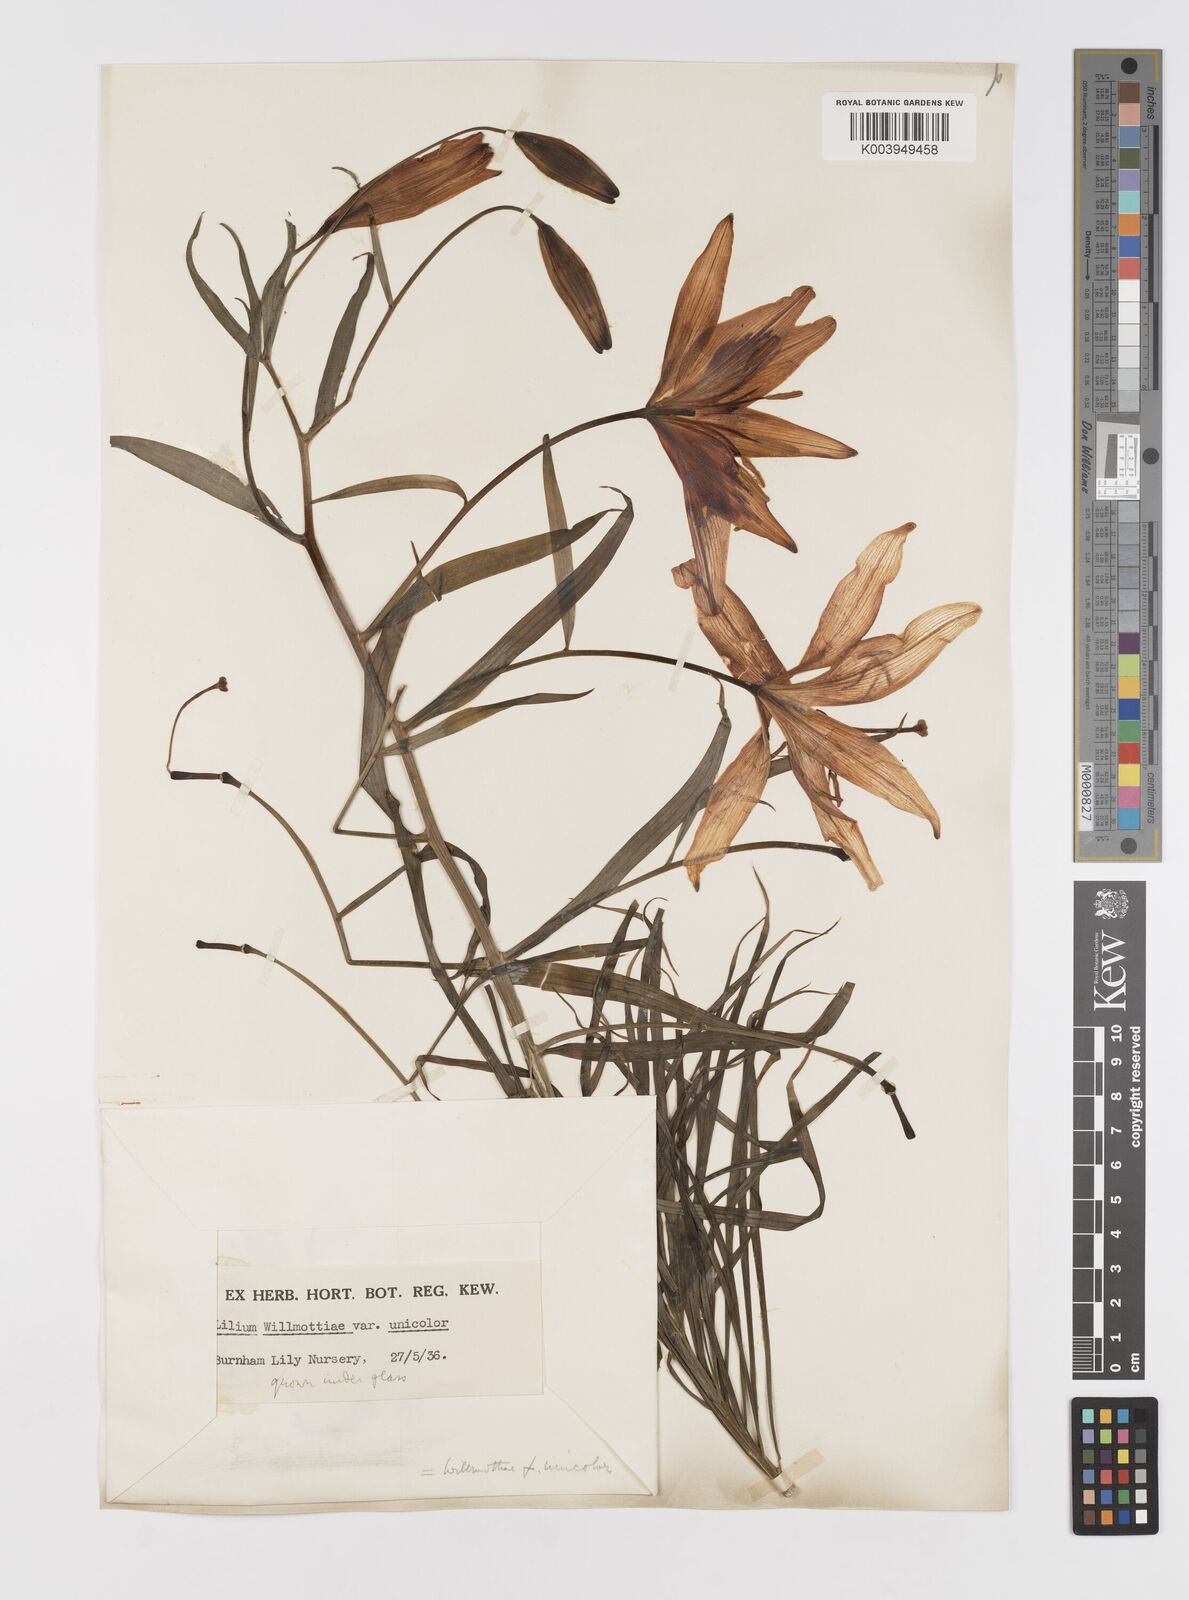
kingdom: Plantae
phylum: Tracheophyta
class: Liliopsida
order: Liliales
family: Liliaceae
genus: Lilium
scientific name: Lilium davidii
